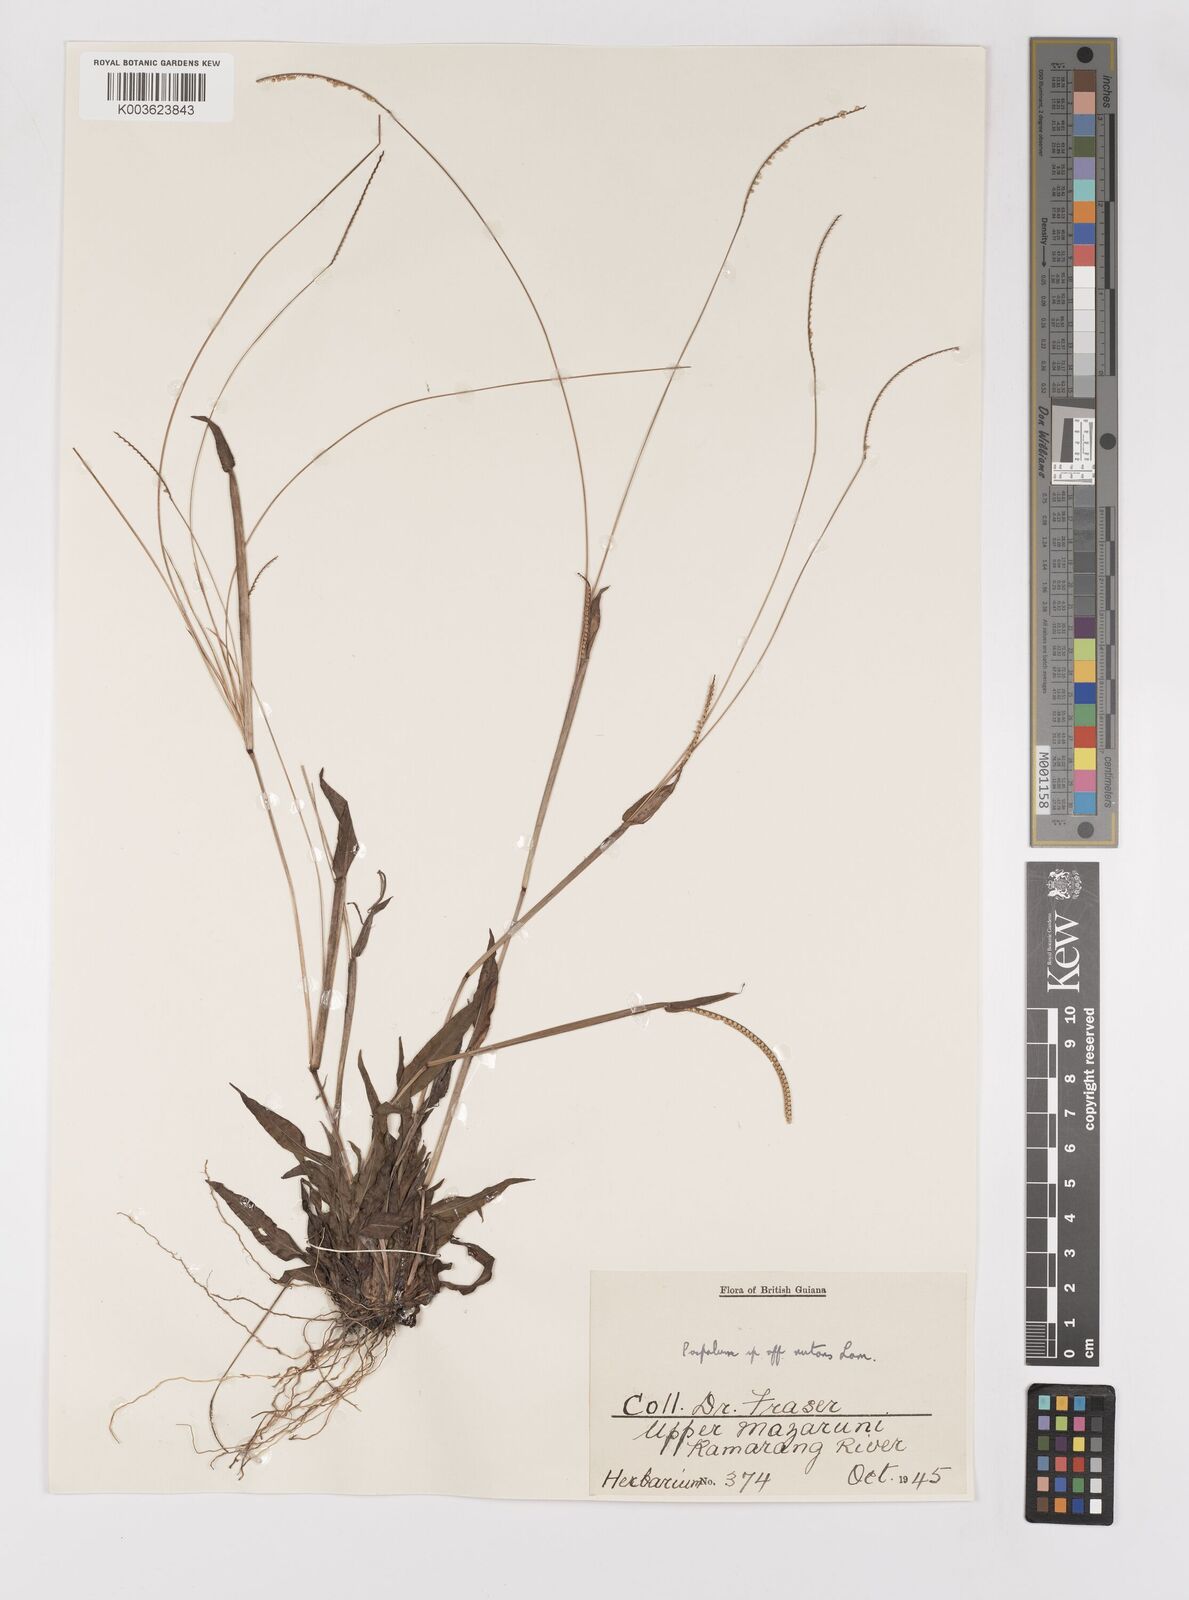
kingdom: Plantae
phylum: Tracheophyta
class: Liliopsida
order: Poales
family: Poaceae
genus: Paspalum
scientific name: Paspalum arenarium
